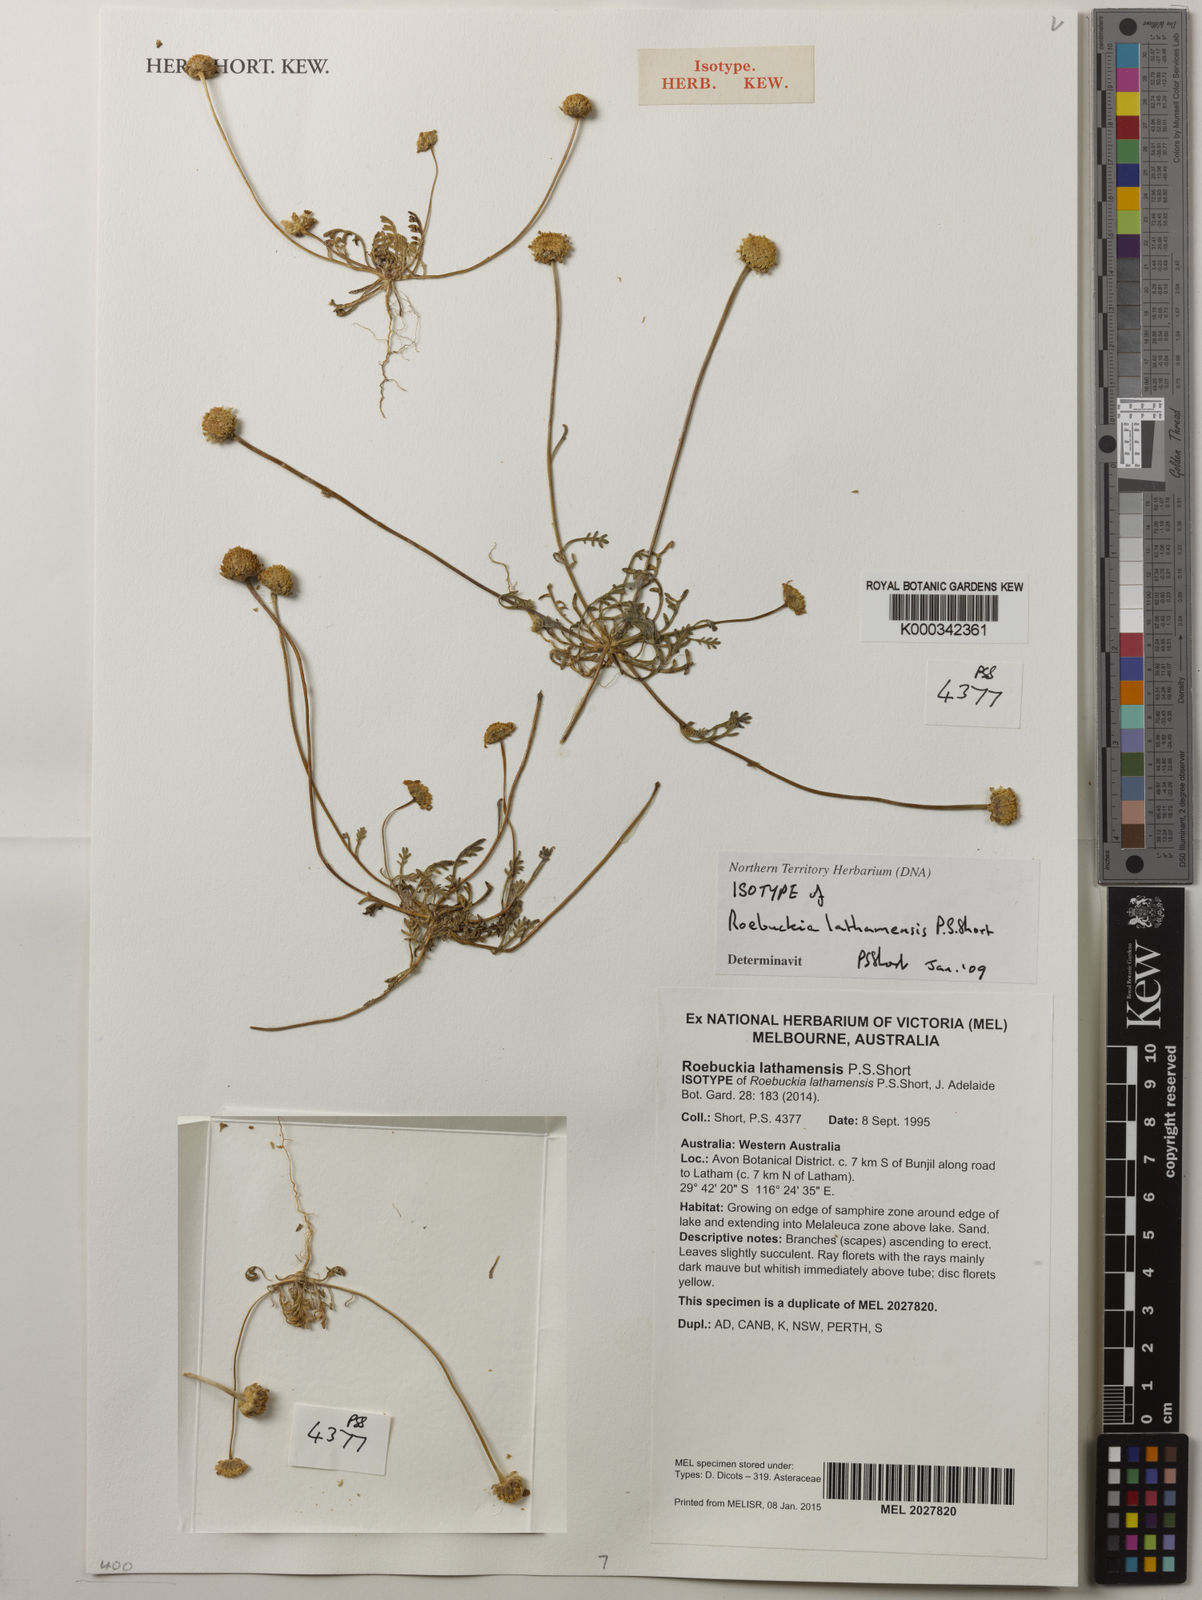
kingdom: Plantae
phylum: Tracheophyta
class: Magnoliopsida
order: Asterales
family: Asteraceae
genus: Roebuckiella
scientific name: Roebuckiella lathamensis
